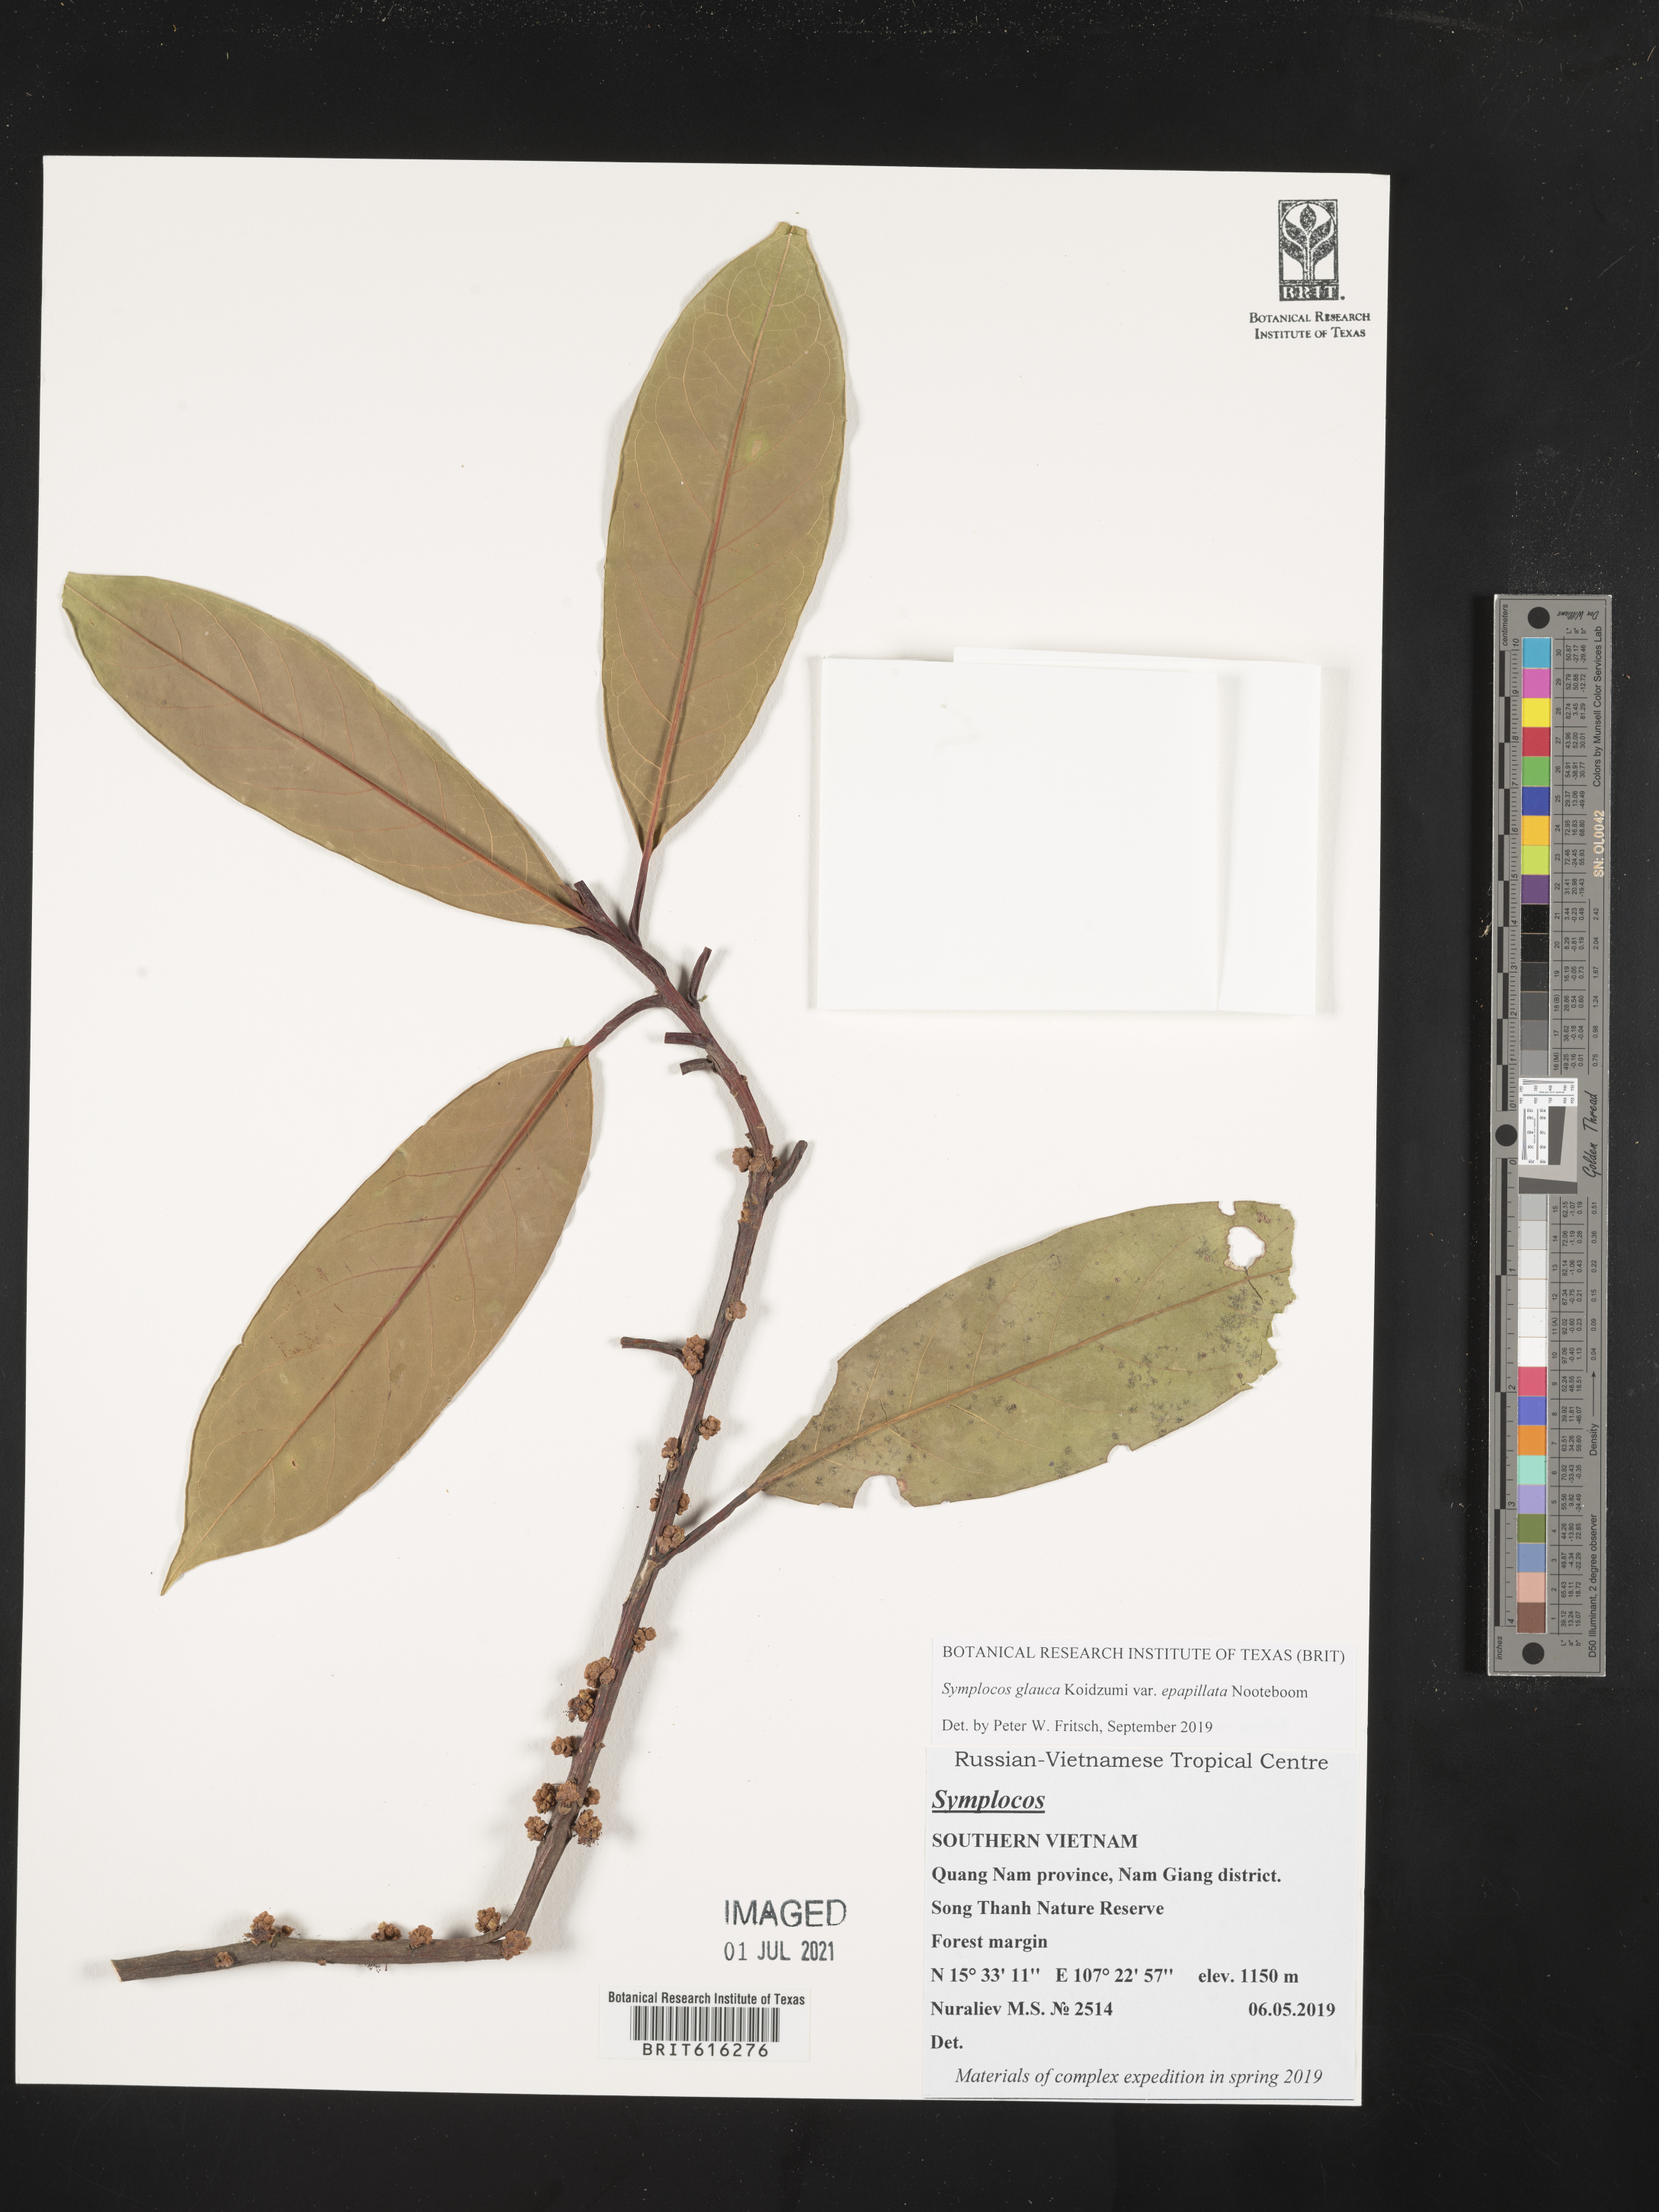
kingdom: Plantae
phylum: Tracheophyta
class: Magnoliopsida
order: Ericales
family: Symplocaceae
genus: Symplocos
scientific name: Symplocos glauca
